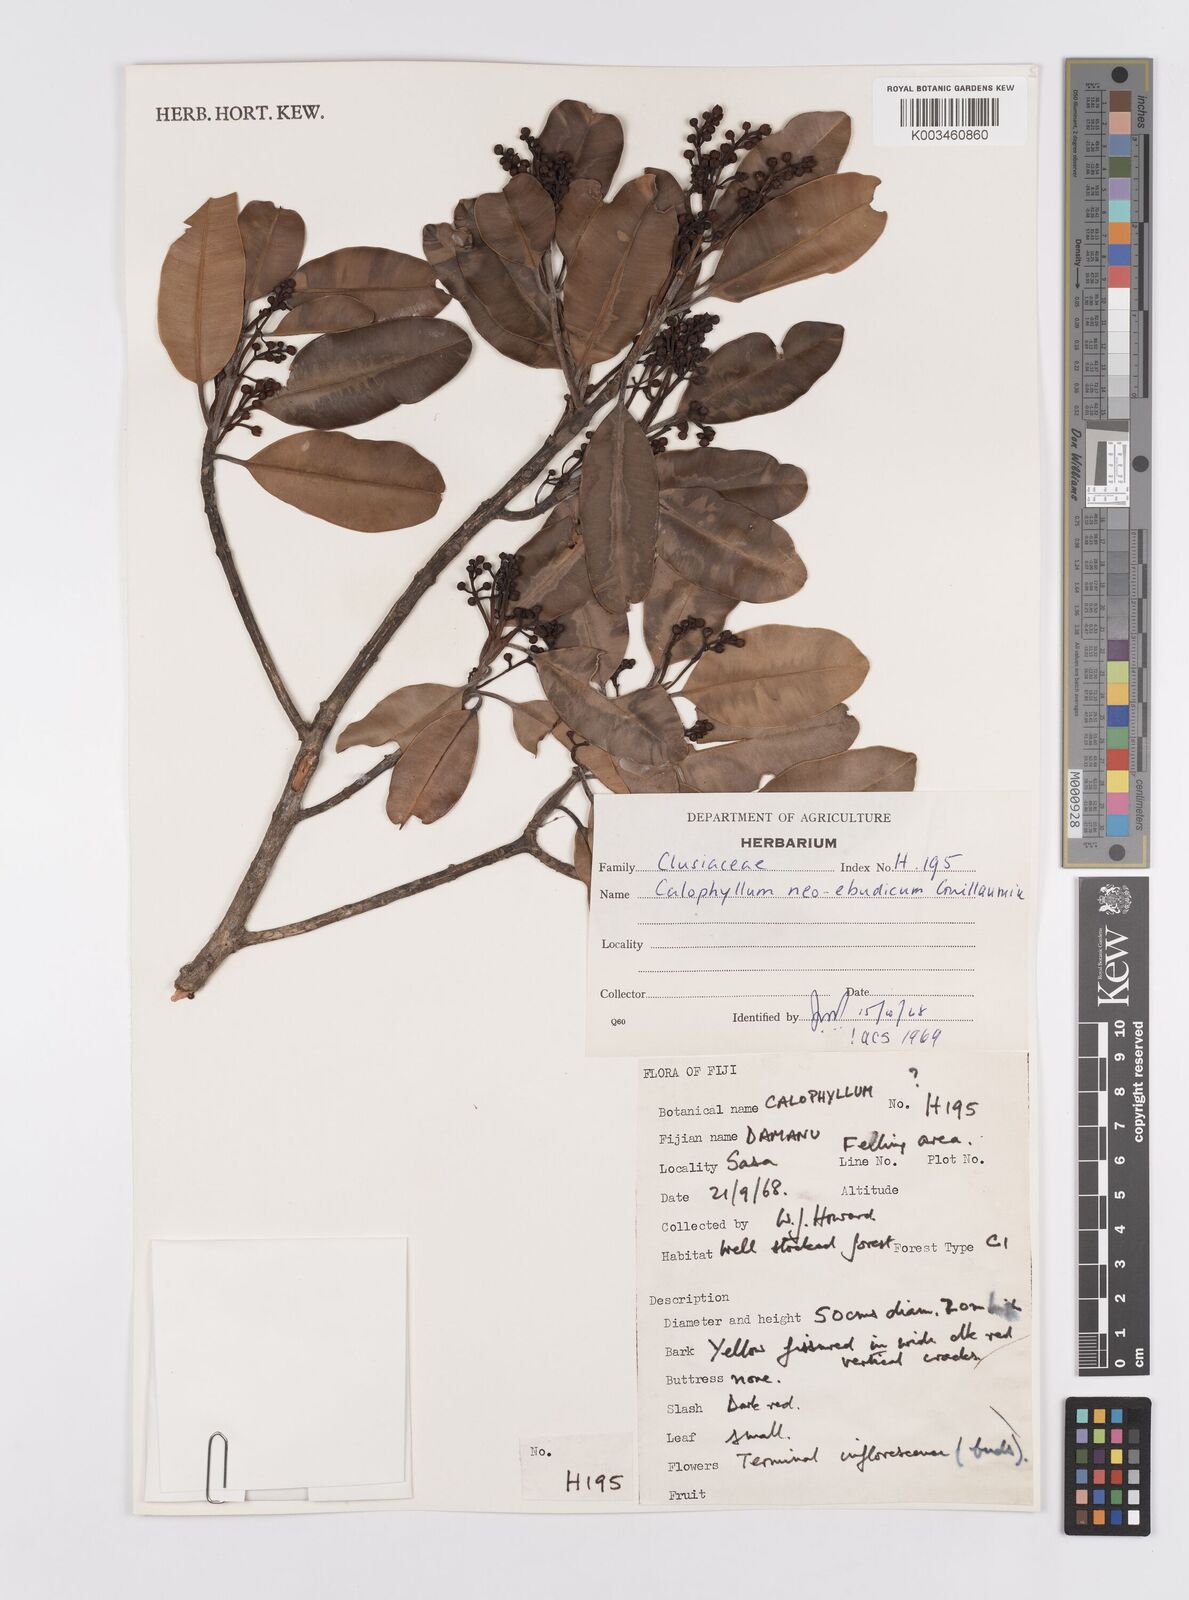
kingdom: Plantae
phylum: Tracheophyta
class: Magnoliopsida
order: Malpighiales
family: Calophyllaceae
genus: Calophyllum
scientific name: Calophyllum neoebudicum
